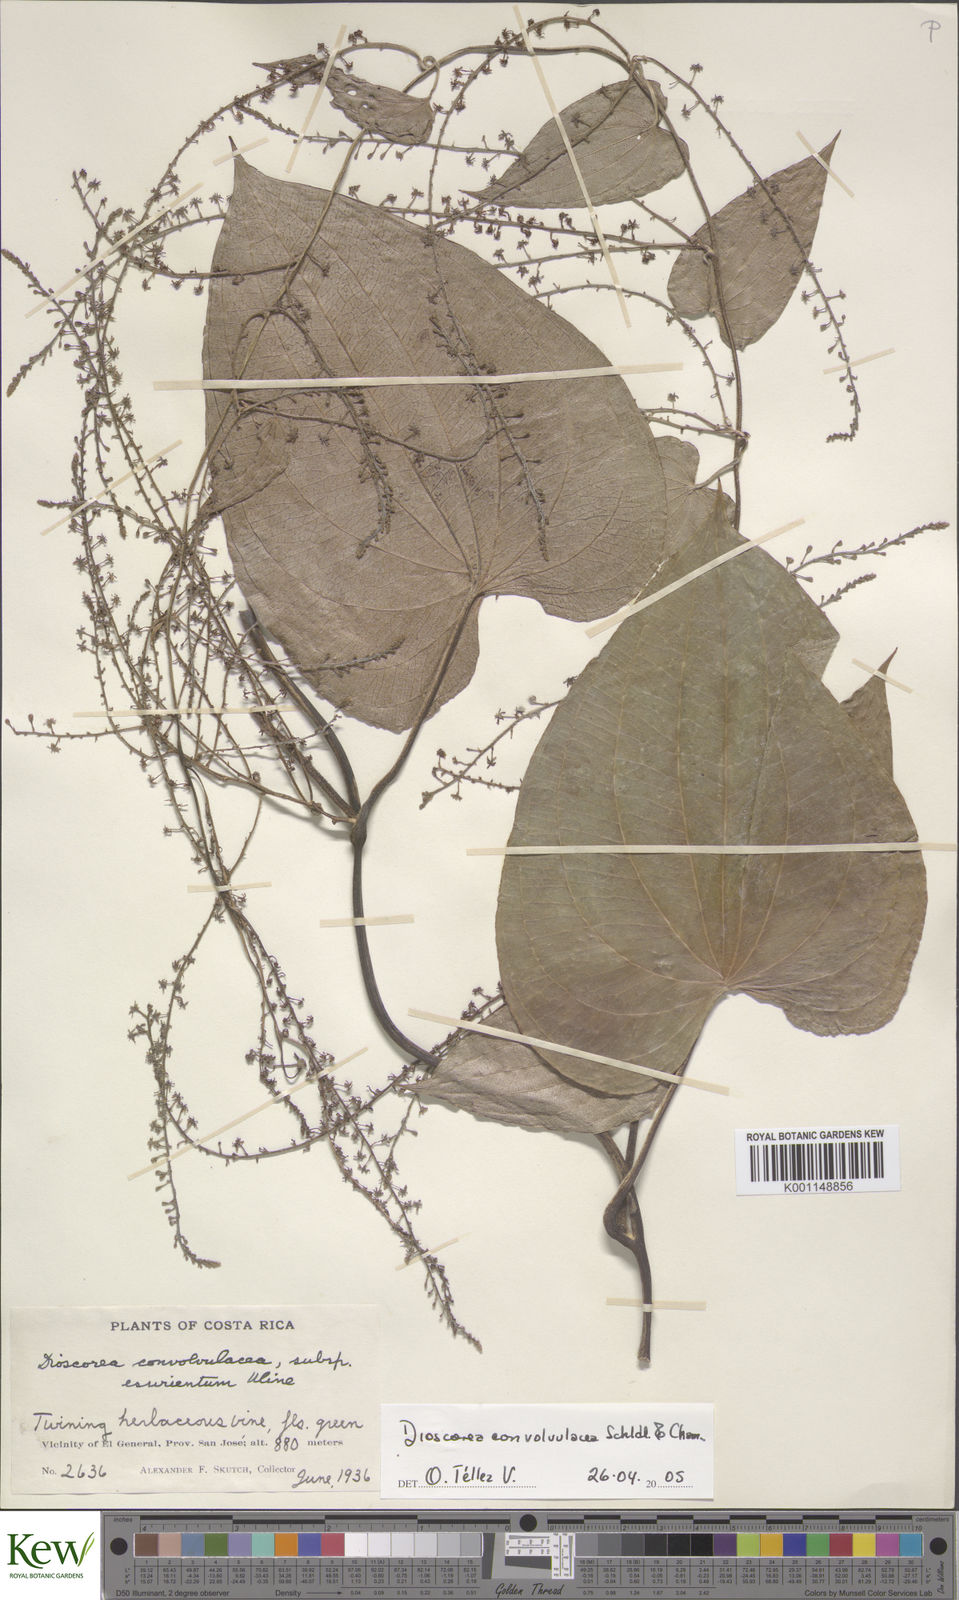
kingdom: Plantae
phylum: Tracheophyta
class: Liliopsida
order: Dioscoreales
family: Dioscoreaceae
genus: Dioscorea
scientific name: Dioscorea convolvulacea
